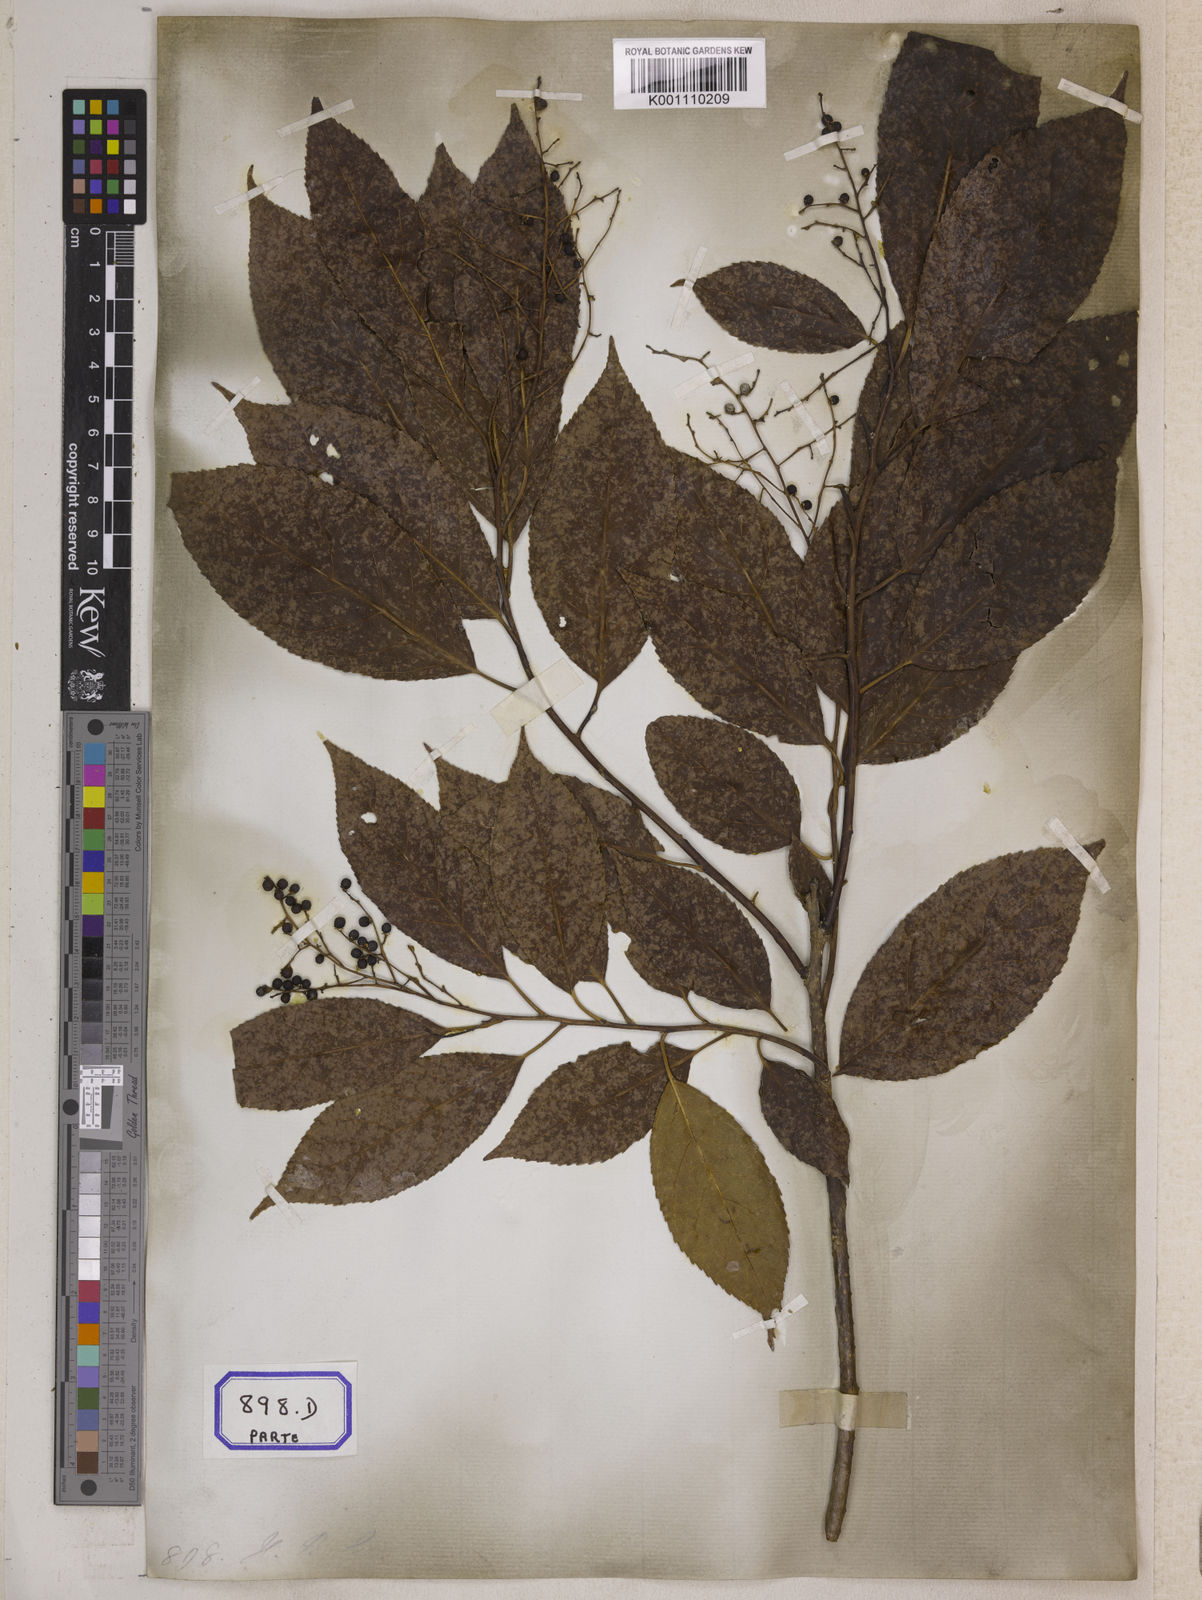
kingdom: Plantae
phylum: Tracheophyta
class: Magnoliopsida
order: Boraginales
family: Ehretiaceae
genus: Ehretia
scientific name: Ehretia acuminata
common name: Kodo wood
